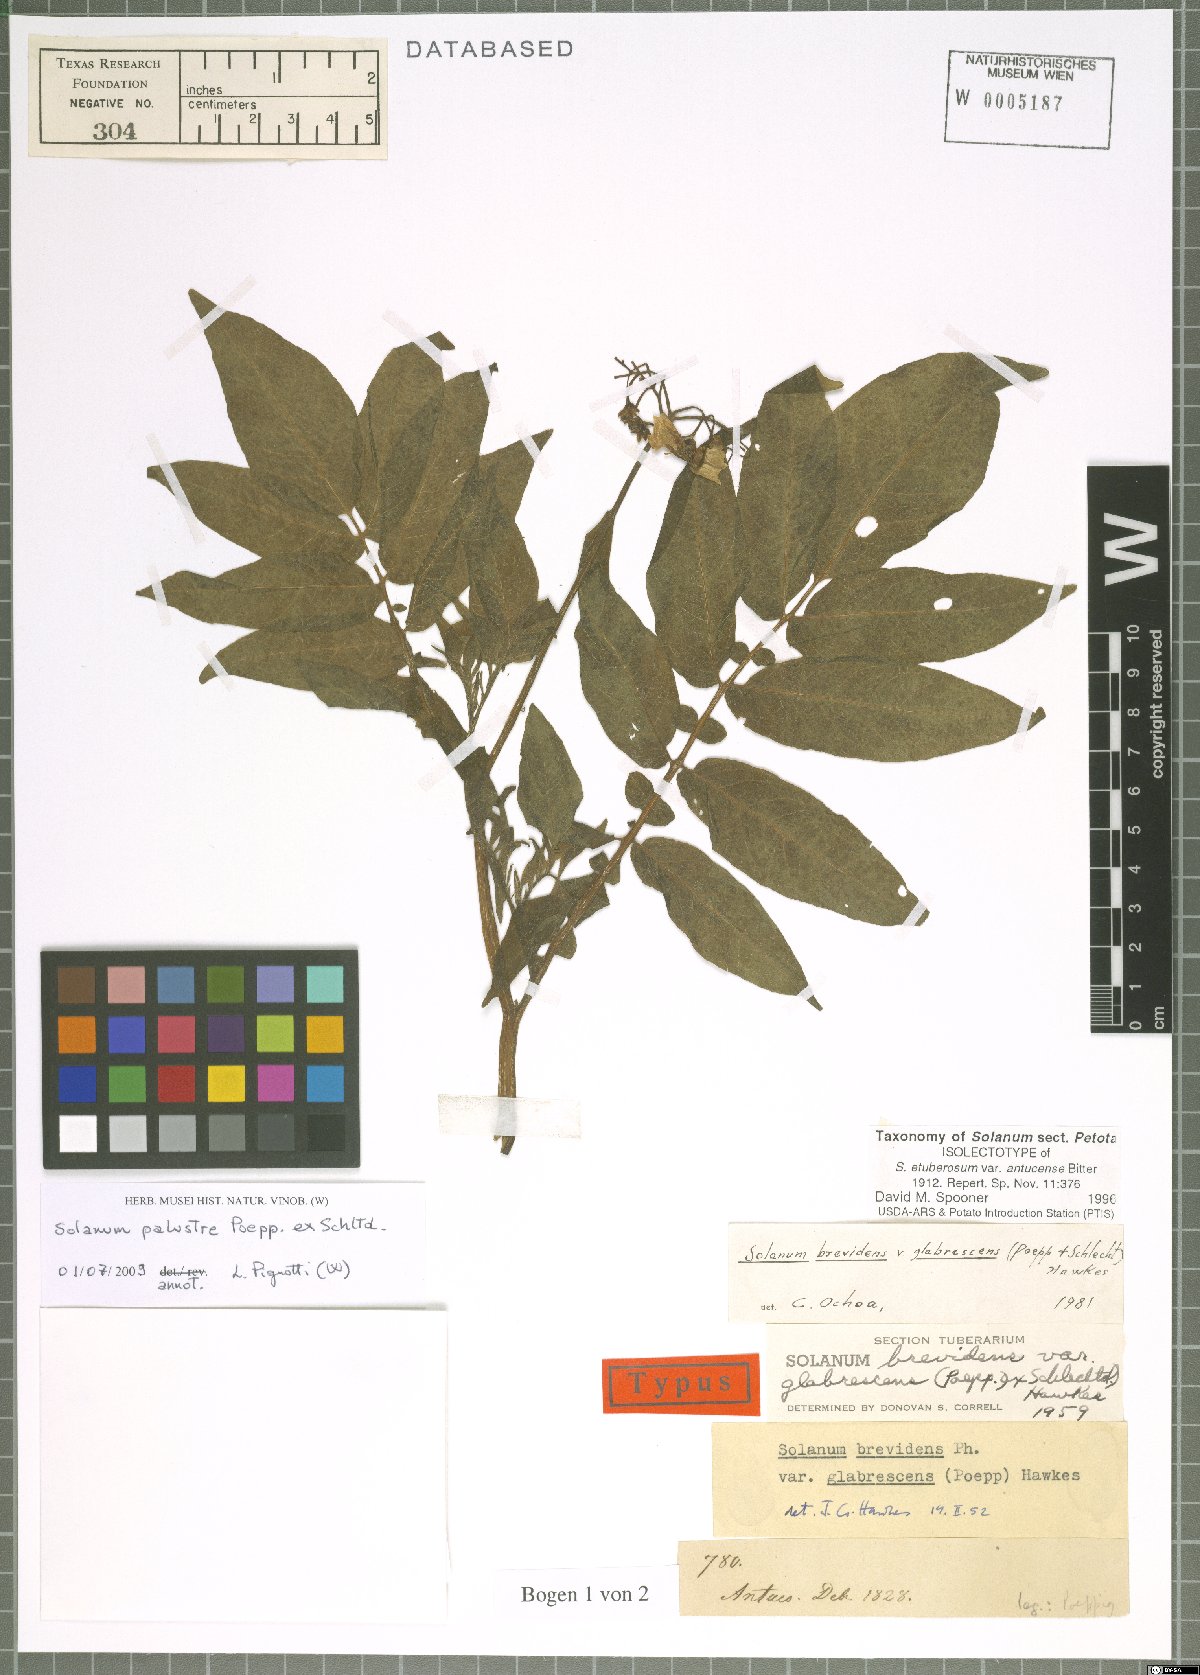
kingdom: Plantae
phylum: Tracheophyta
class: Magnoliopsida
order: Solanales
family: Solanaceae
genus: Solanum
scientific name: Solanum palustre
